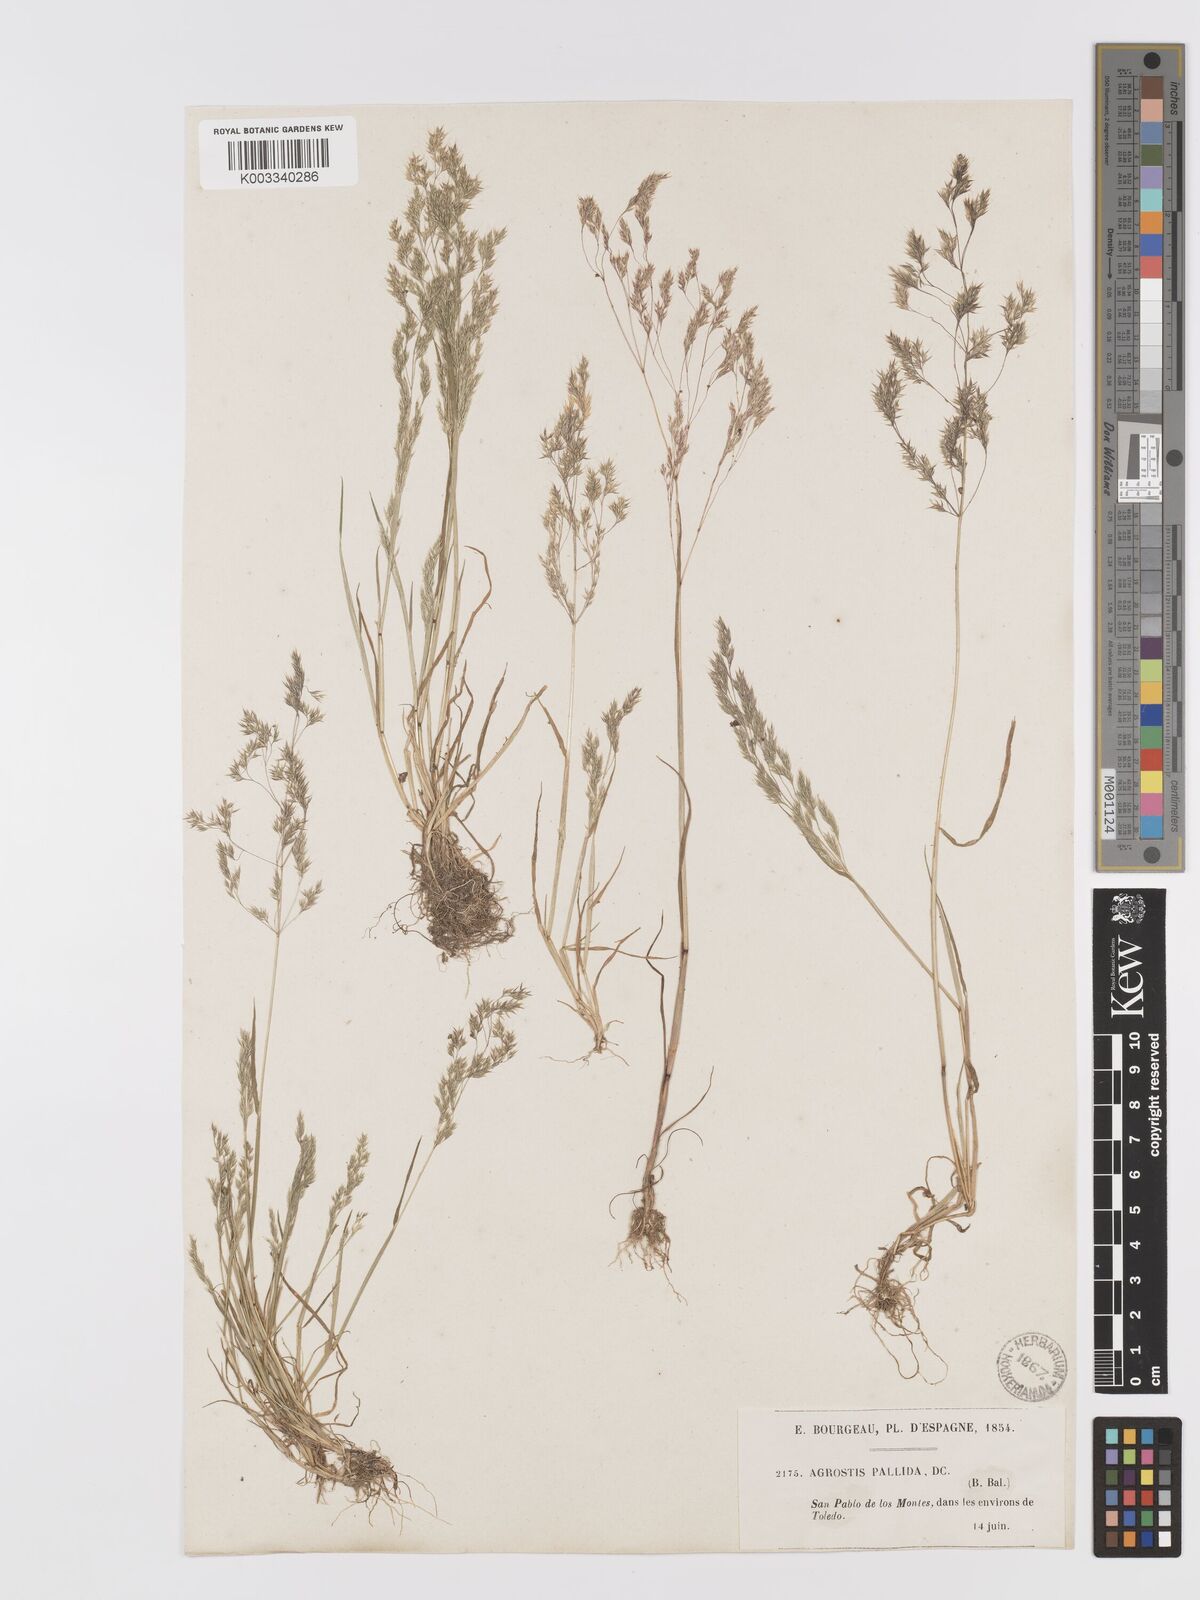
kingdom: Plantae
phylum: Tracheophyta
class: Liliopsida
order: Poales
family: Poaceae
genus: Agrostis
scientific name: Agrostis pourretii
